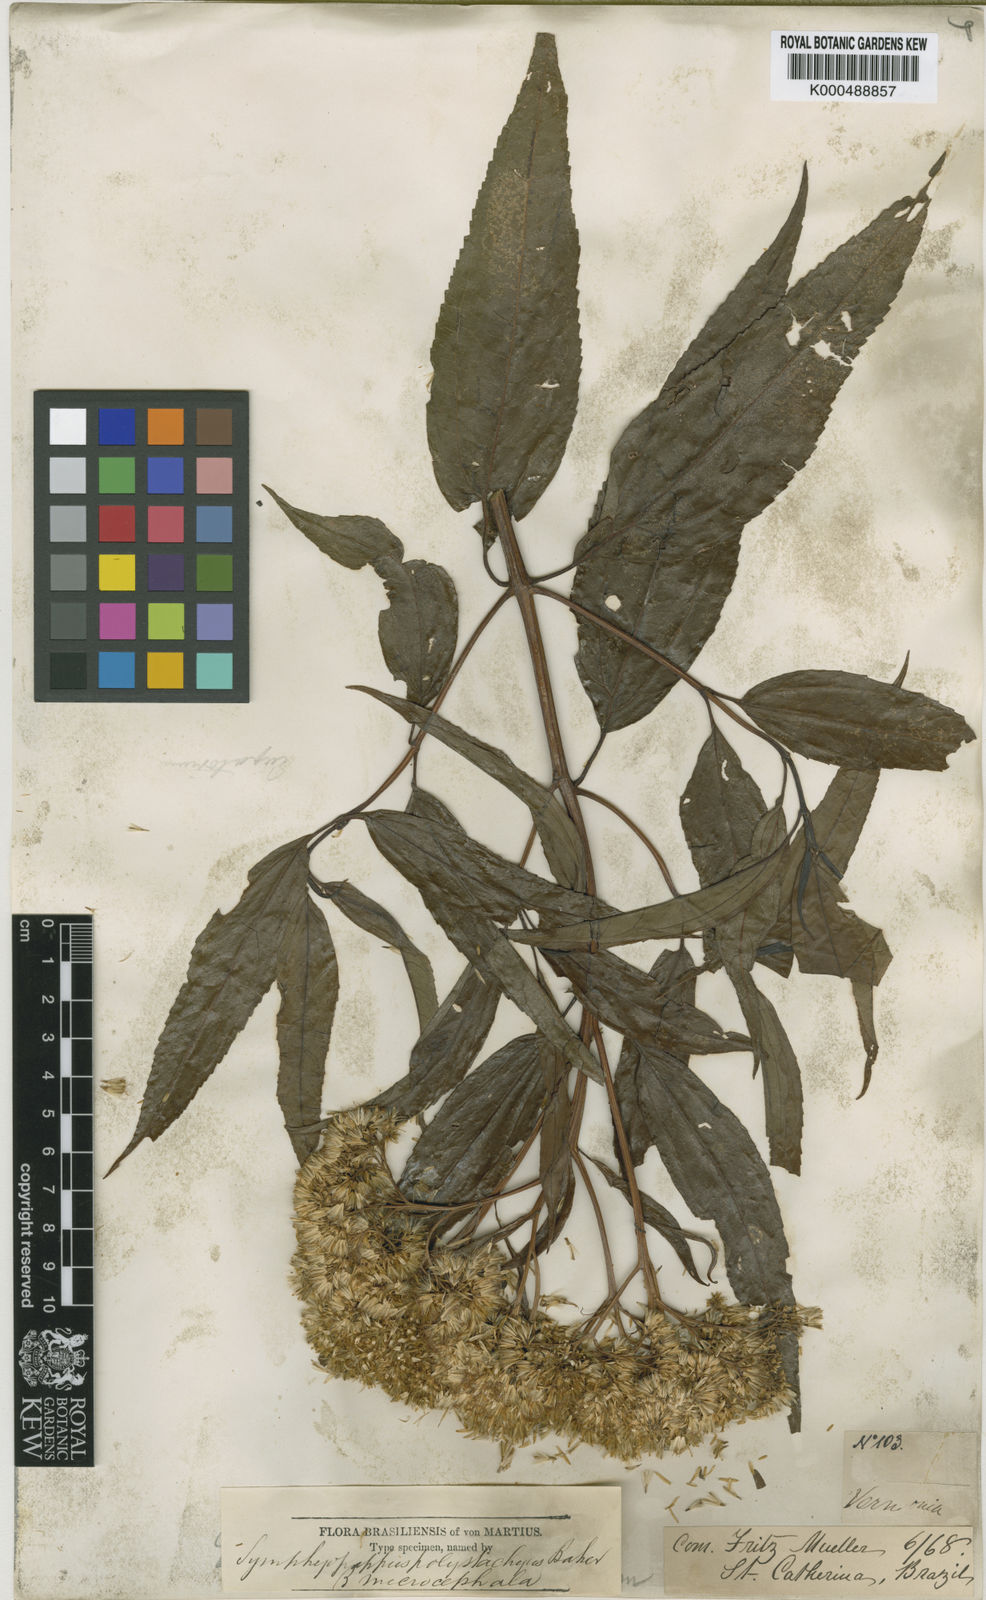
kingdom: Plantae
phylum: Tracheophyta
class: Magnoliopsida
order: Asterales
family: Asteraceae
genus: Symphyopappus
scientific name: Symphyopappus itatiayensis
